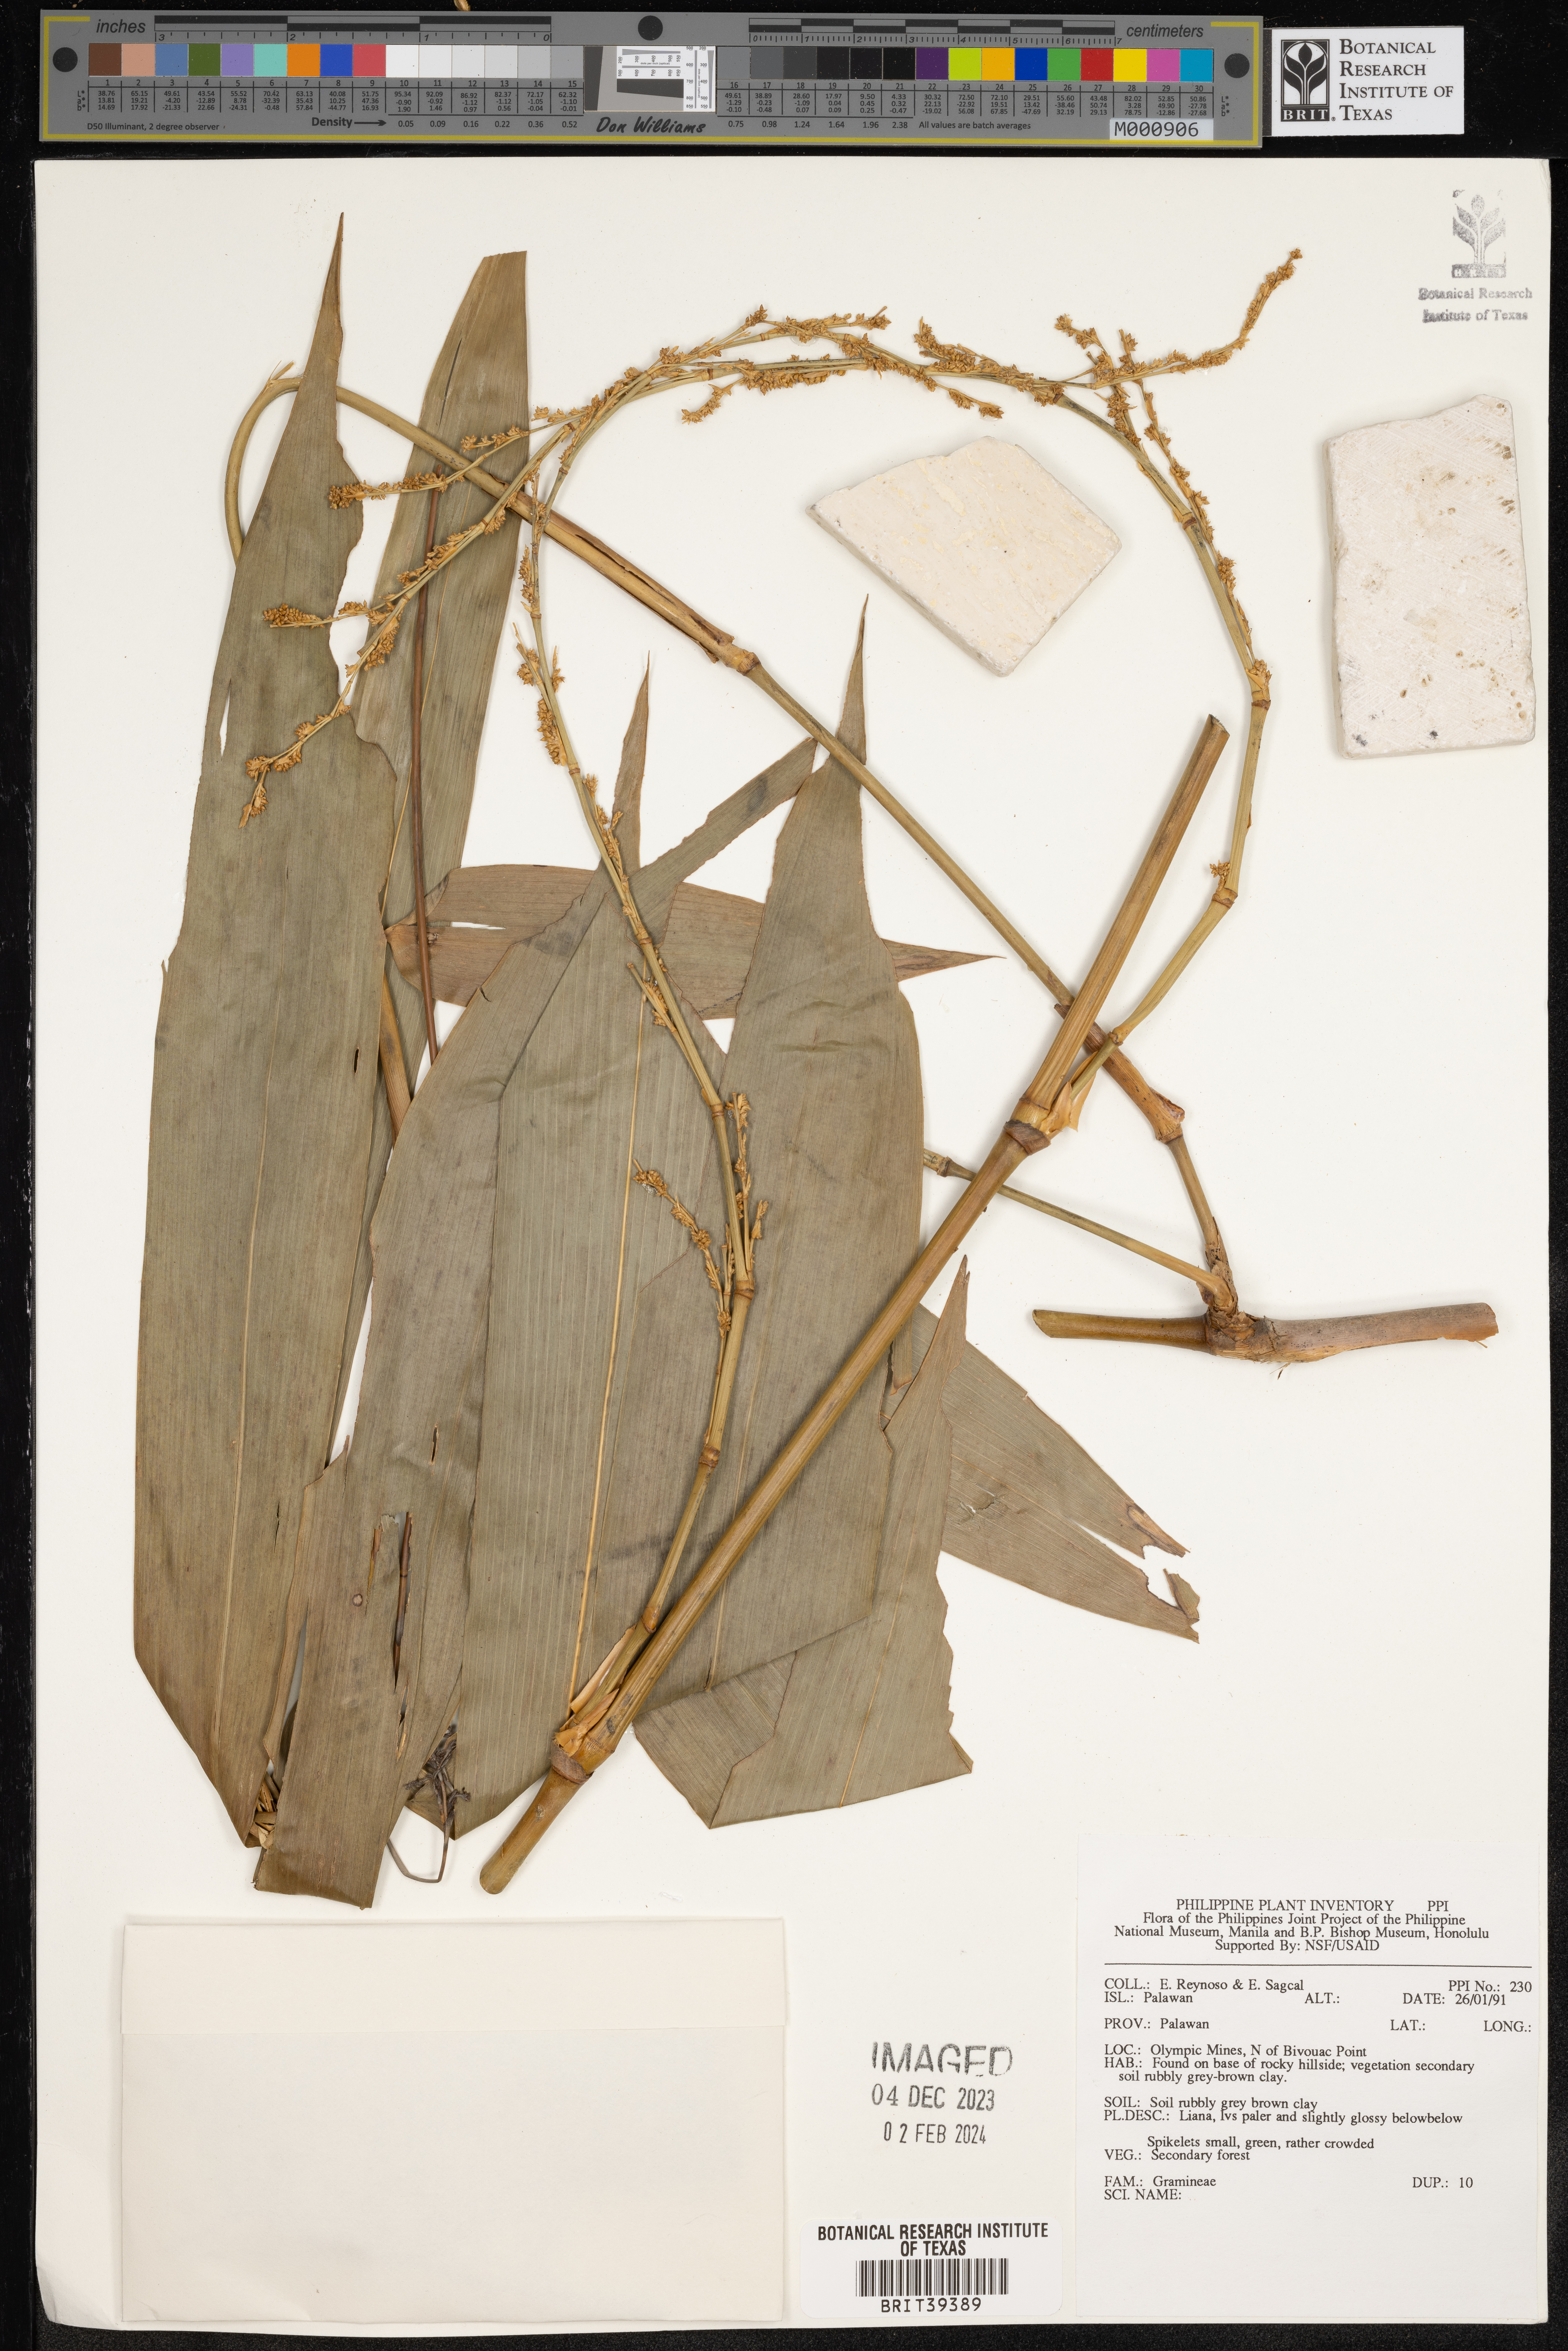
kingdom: Plantae
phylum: Tracheophyta
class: Liliopsida
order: Poales
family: Poaceae
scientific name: Poaceae
